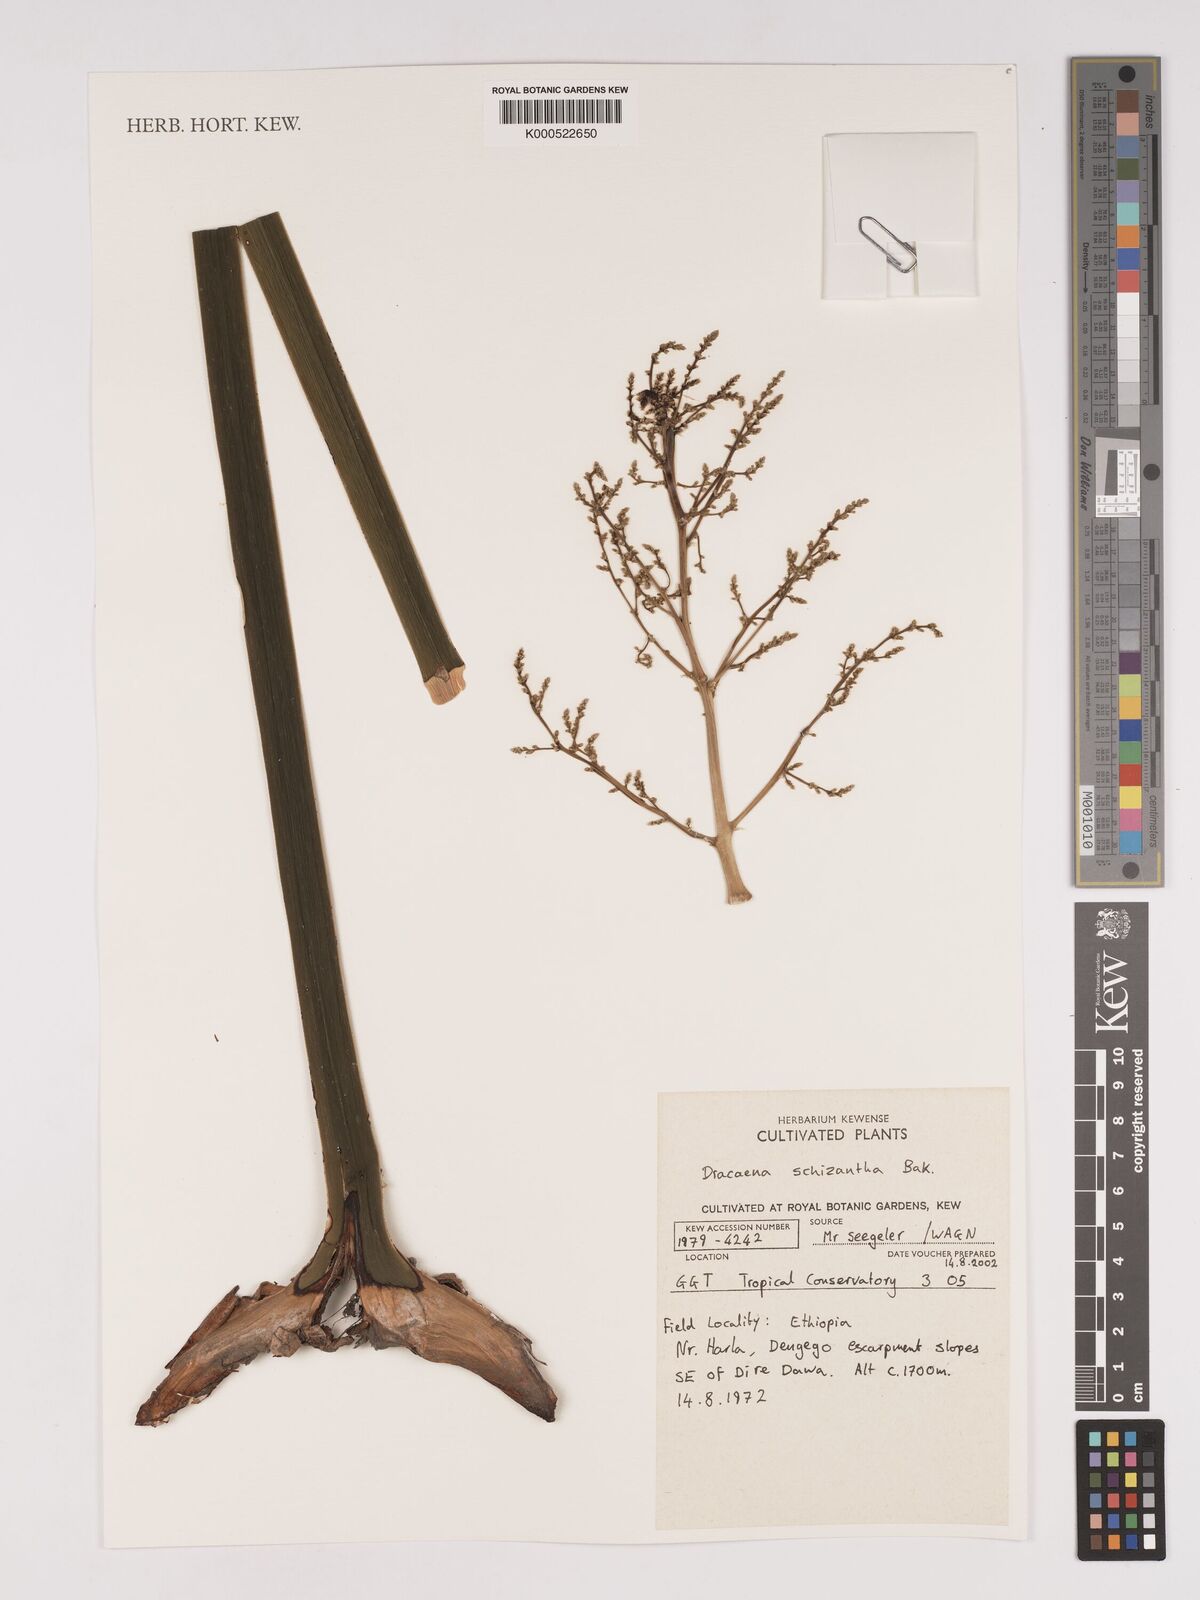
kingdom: Plantae
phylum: Tracheophyta
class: Liliopsida
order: Asparagales
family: Asparagaceae
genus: Dracaena
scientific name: Dracaena ombet
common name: Gabal elba dragon tree
